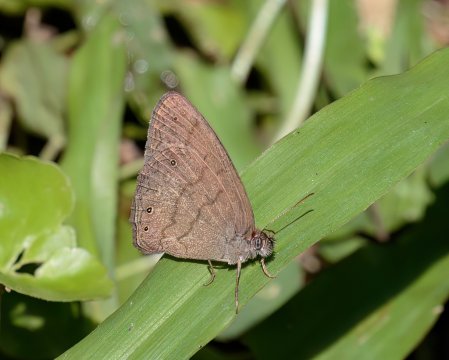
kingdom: Animalia
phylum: Arthropoda
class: Insecta
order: Lepidoptera
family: Nymphalidae
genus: Hermeuptychia
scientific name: Hermeuptychia hermes
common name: Hermes Satyr
